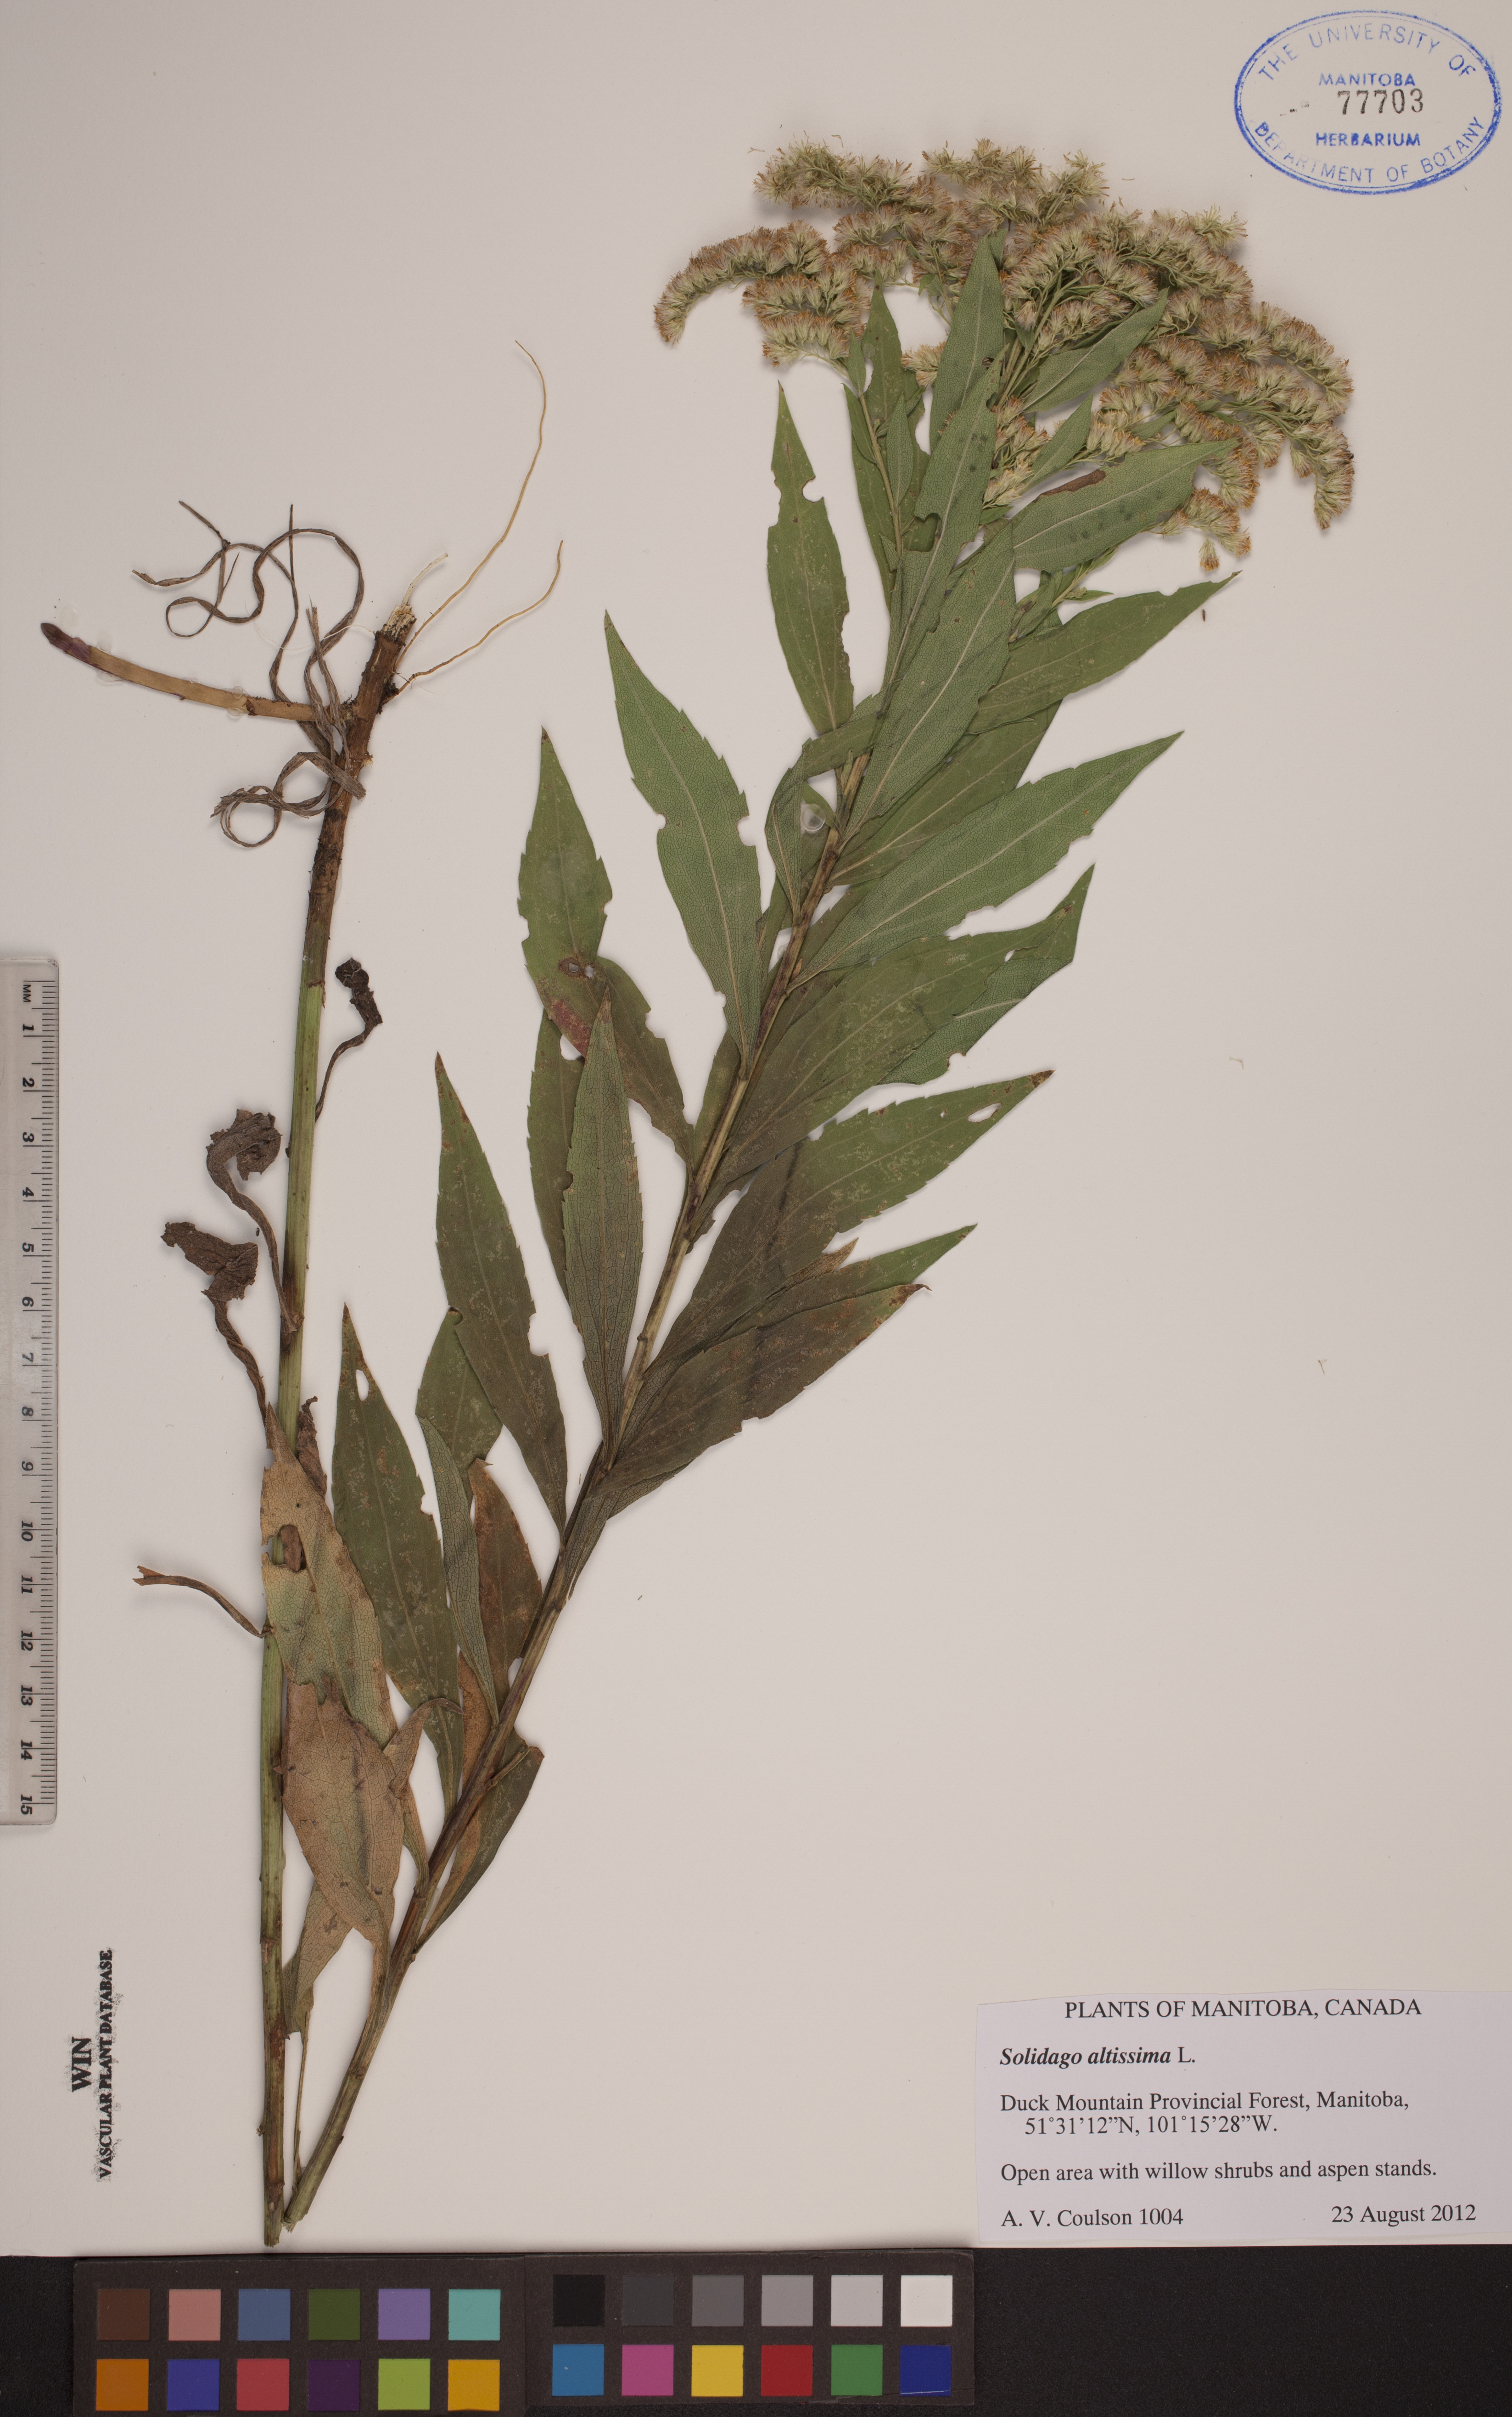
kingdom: Plantae
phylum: Tracheophyta
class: Magnoliopsida
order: Asterales
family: Asteraceae
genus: Solidago
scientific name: Solidago altissima
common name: Late goldenrod
